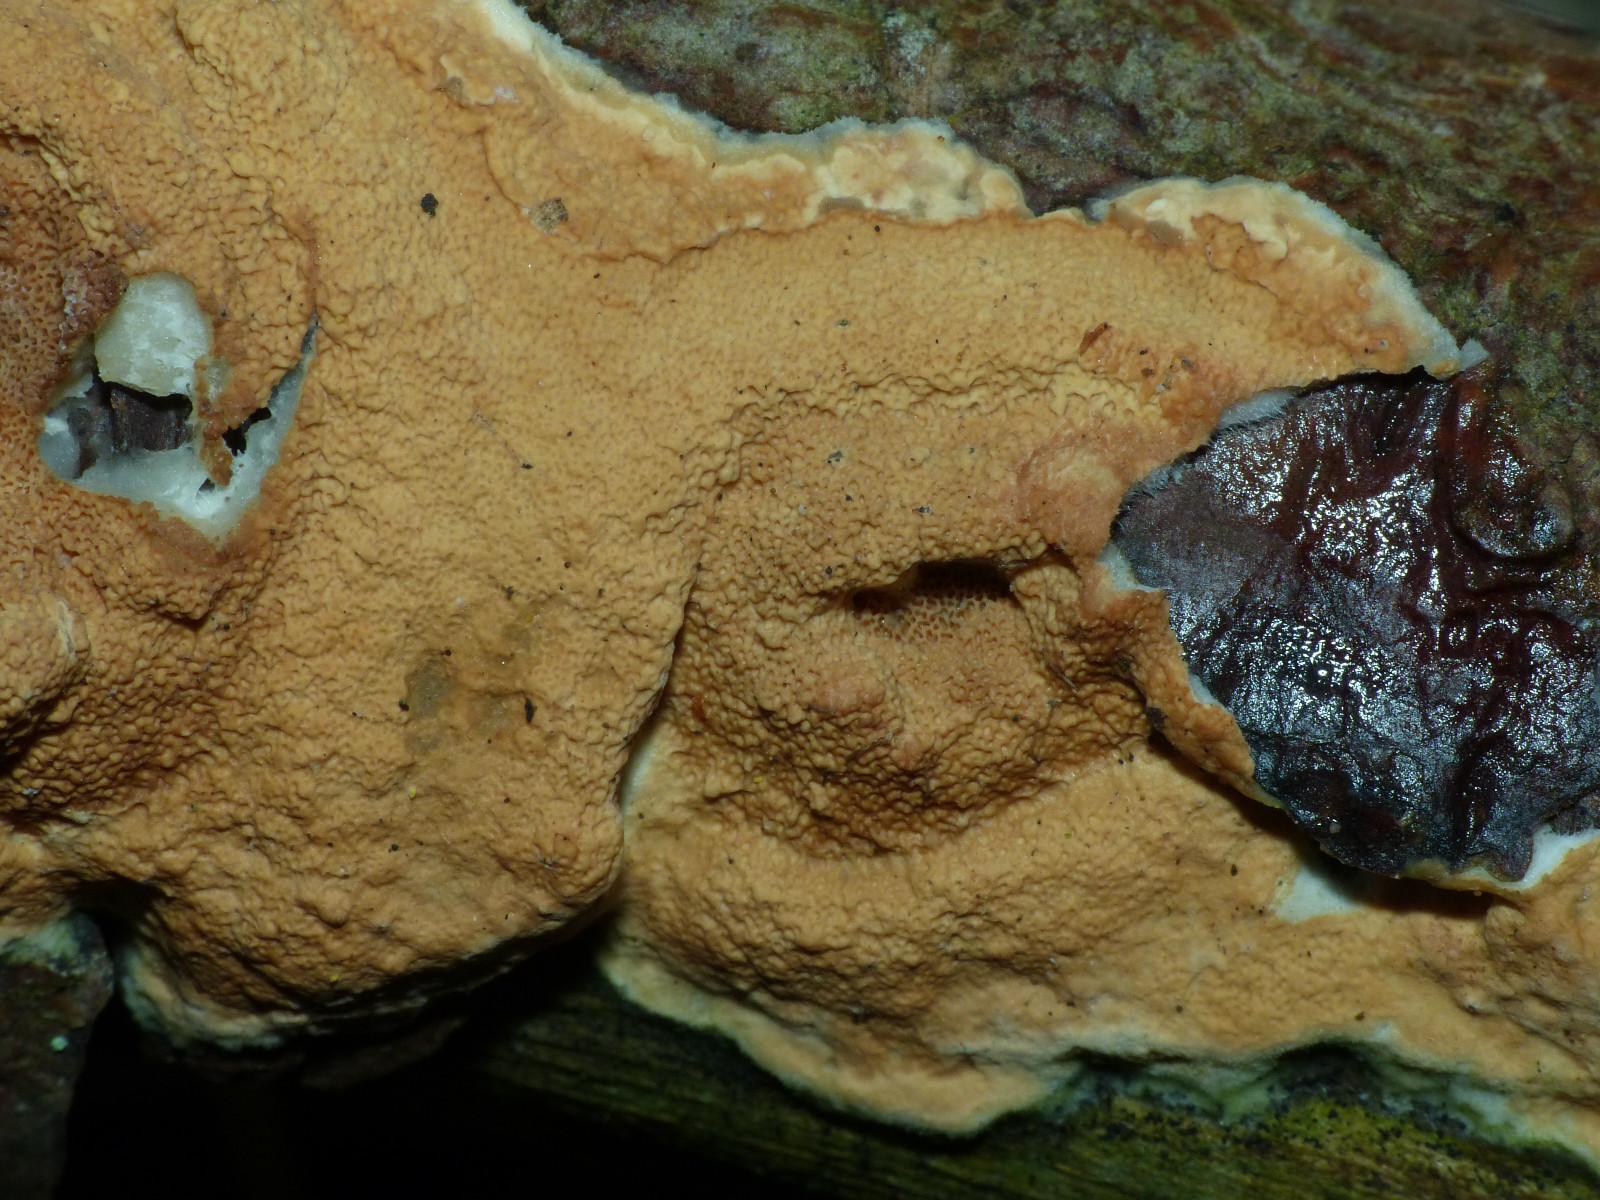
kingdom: Fungi
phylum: Basidiomycota
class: Agaricomycetes
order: Polyporales
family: Irpicaceae
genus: Meruliopsis
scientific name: Meruliopsis taxicola
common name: purpurbrun foldporesvamp
